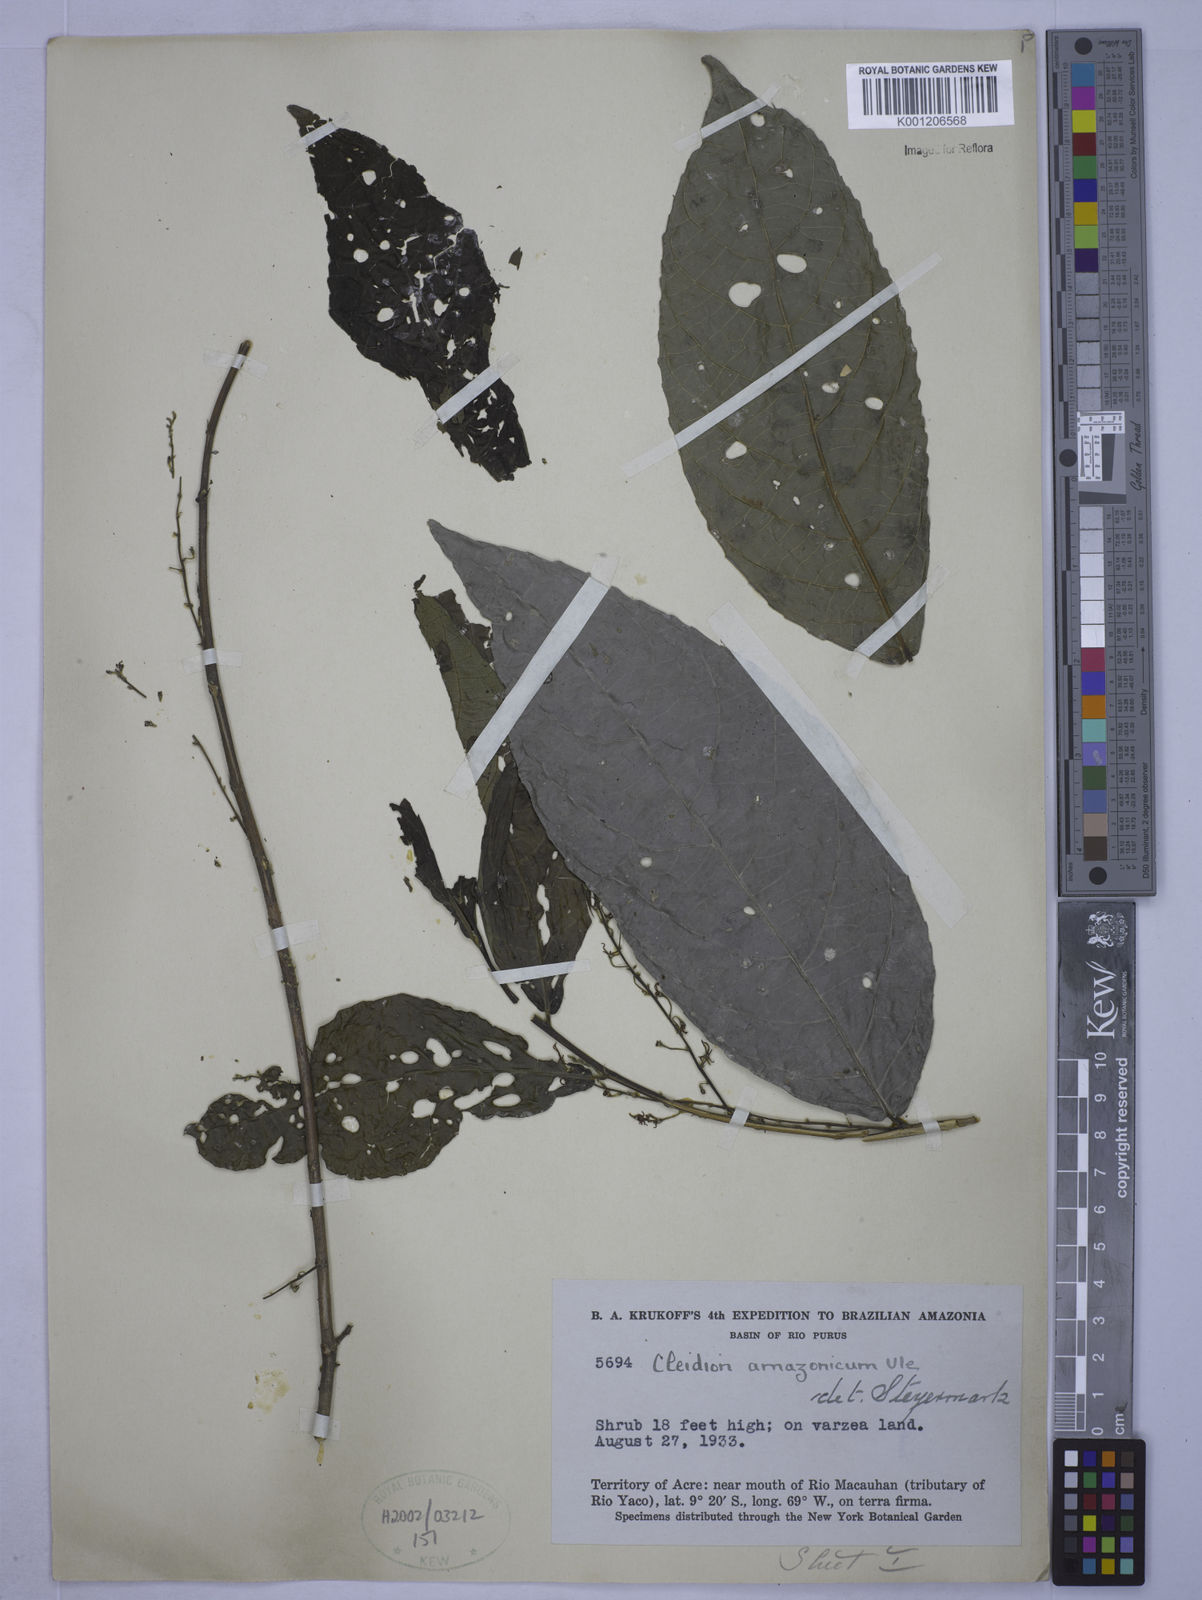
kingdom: Plantae
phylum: Tracheophyta
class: Magnoliopsida
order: Malpighiales
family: Euphorbiaceae
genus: Cleidion
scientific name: Cleidion amazonicum
